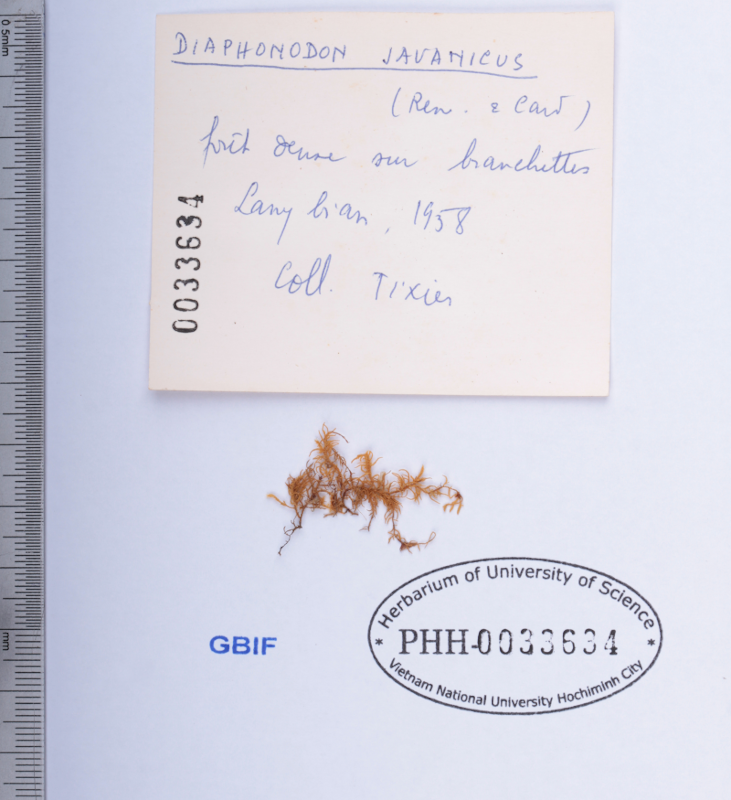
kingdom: Plantae
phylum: Bryophyta
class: Bryopsida
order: Hypnales
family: Meteoriaceae
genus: Diaphanodon
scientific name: Diaphanodon blandus
